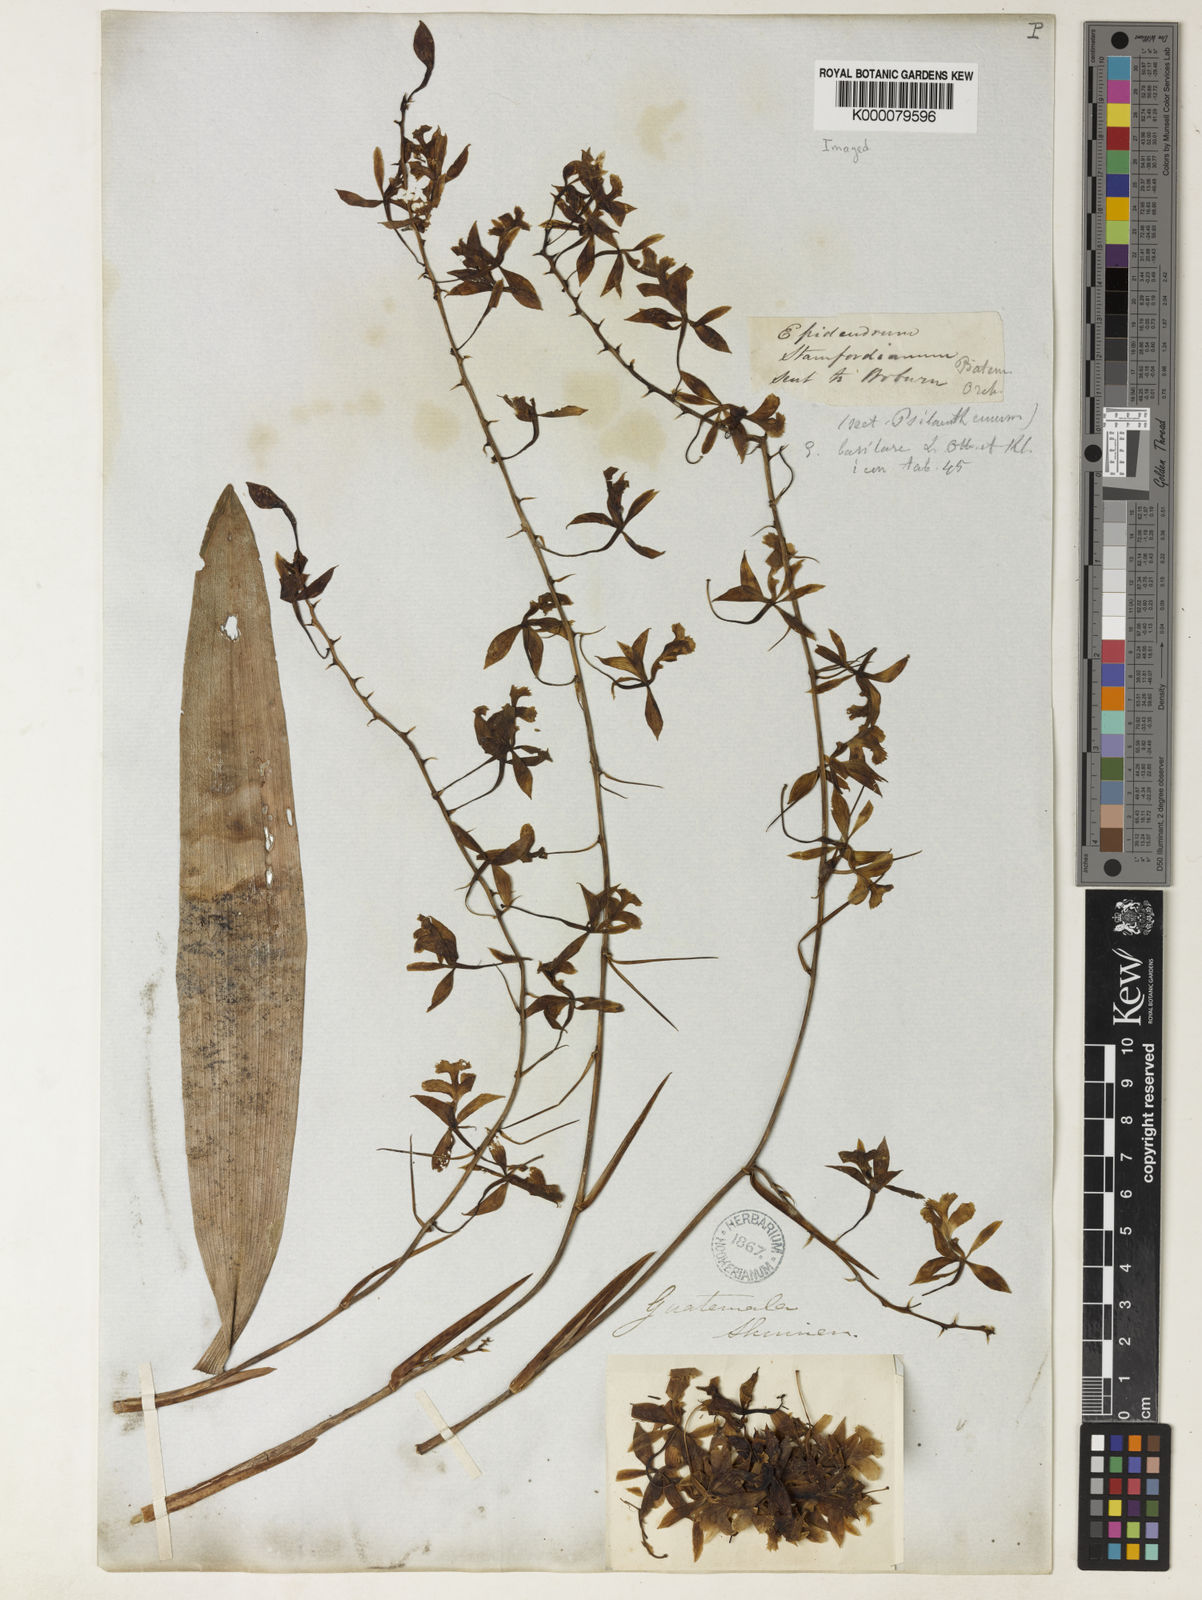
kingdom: Plantae
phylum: Tracheophyta
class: Liliopsida
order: Asparagales
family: Orchidaceae
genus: Epidendrum
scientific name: Epidendrum stamfordianum
